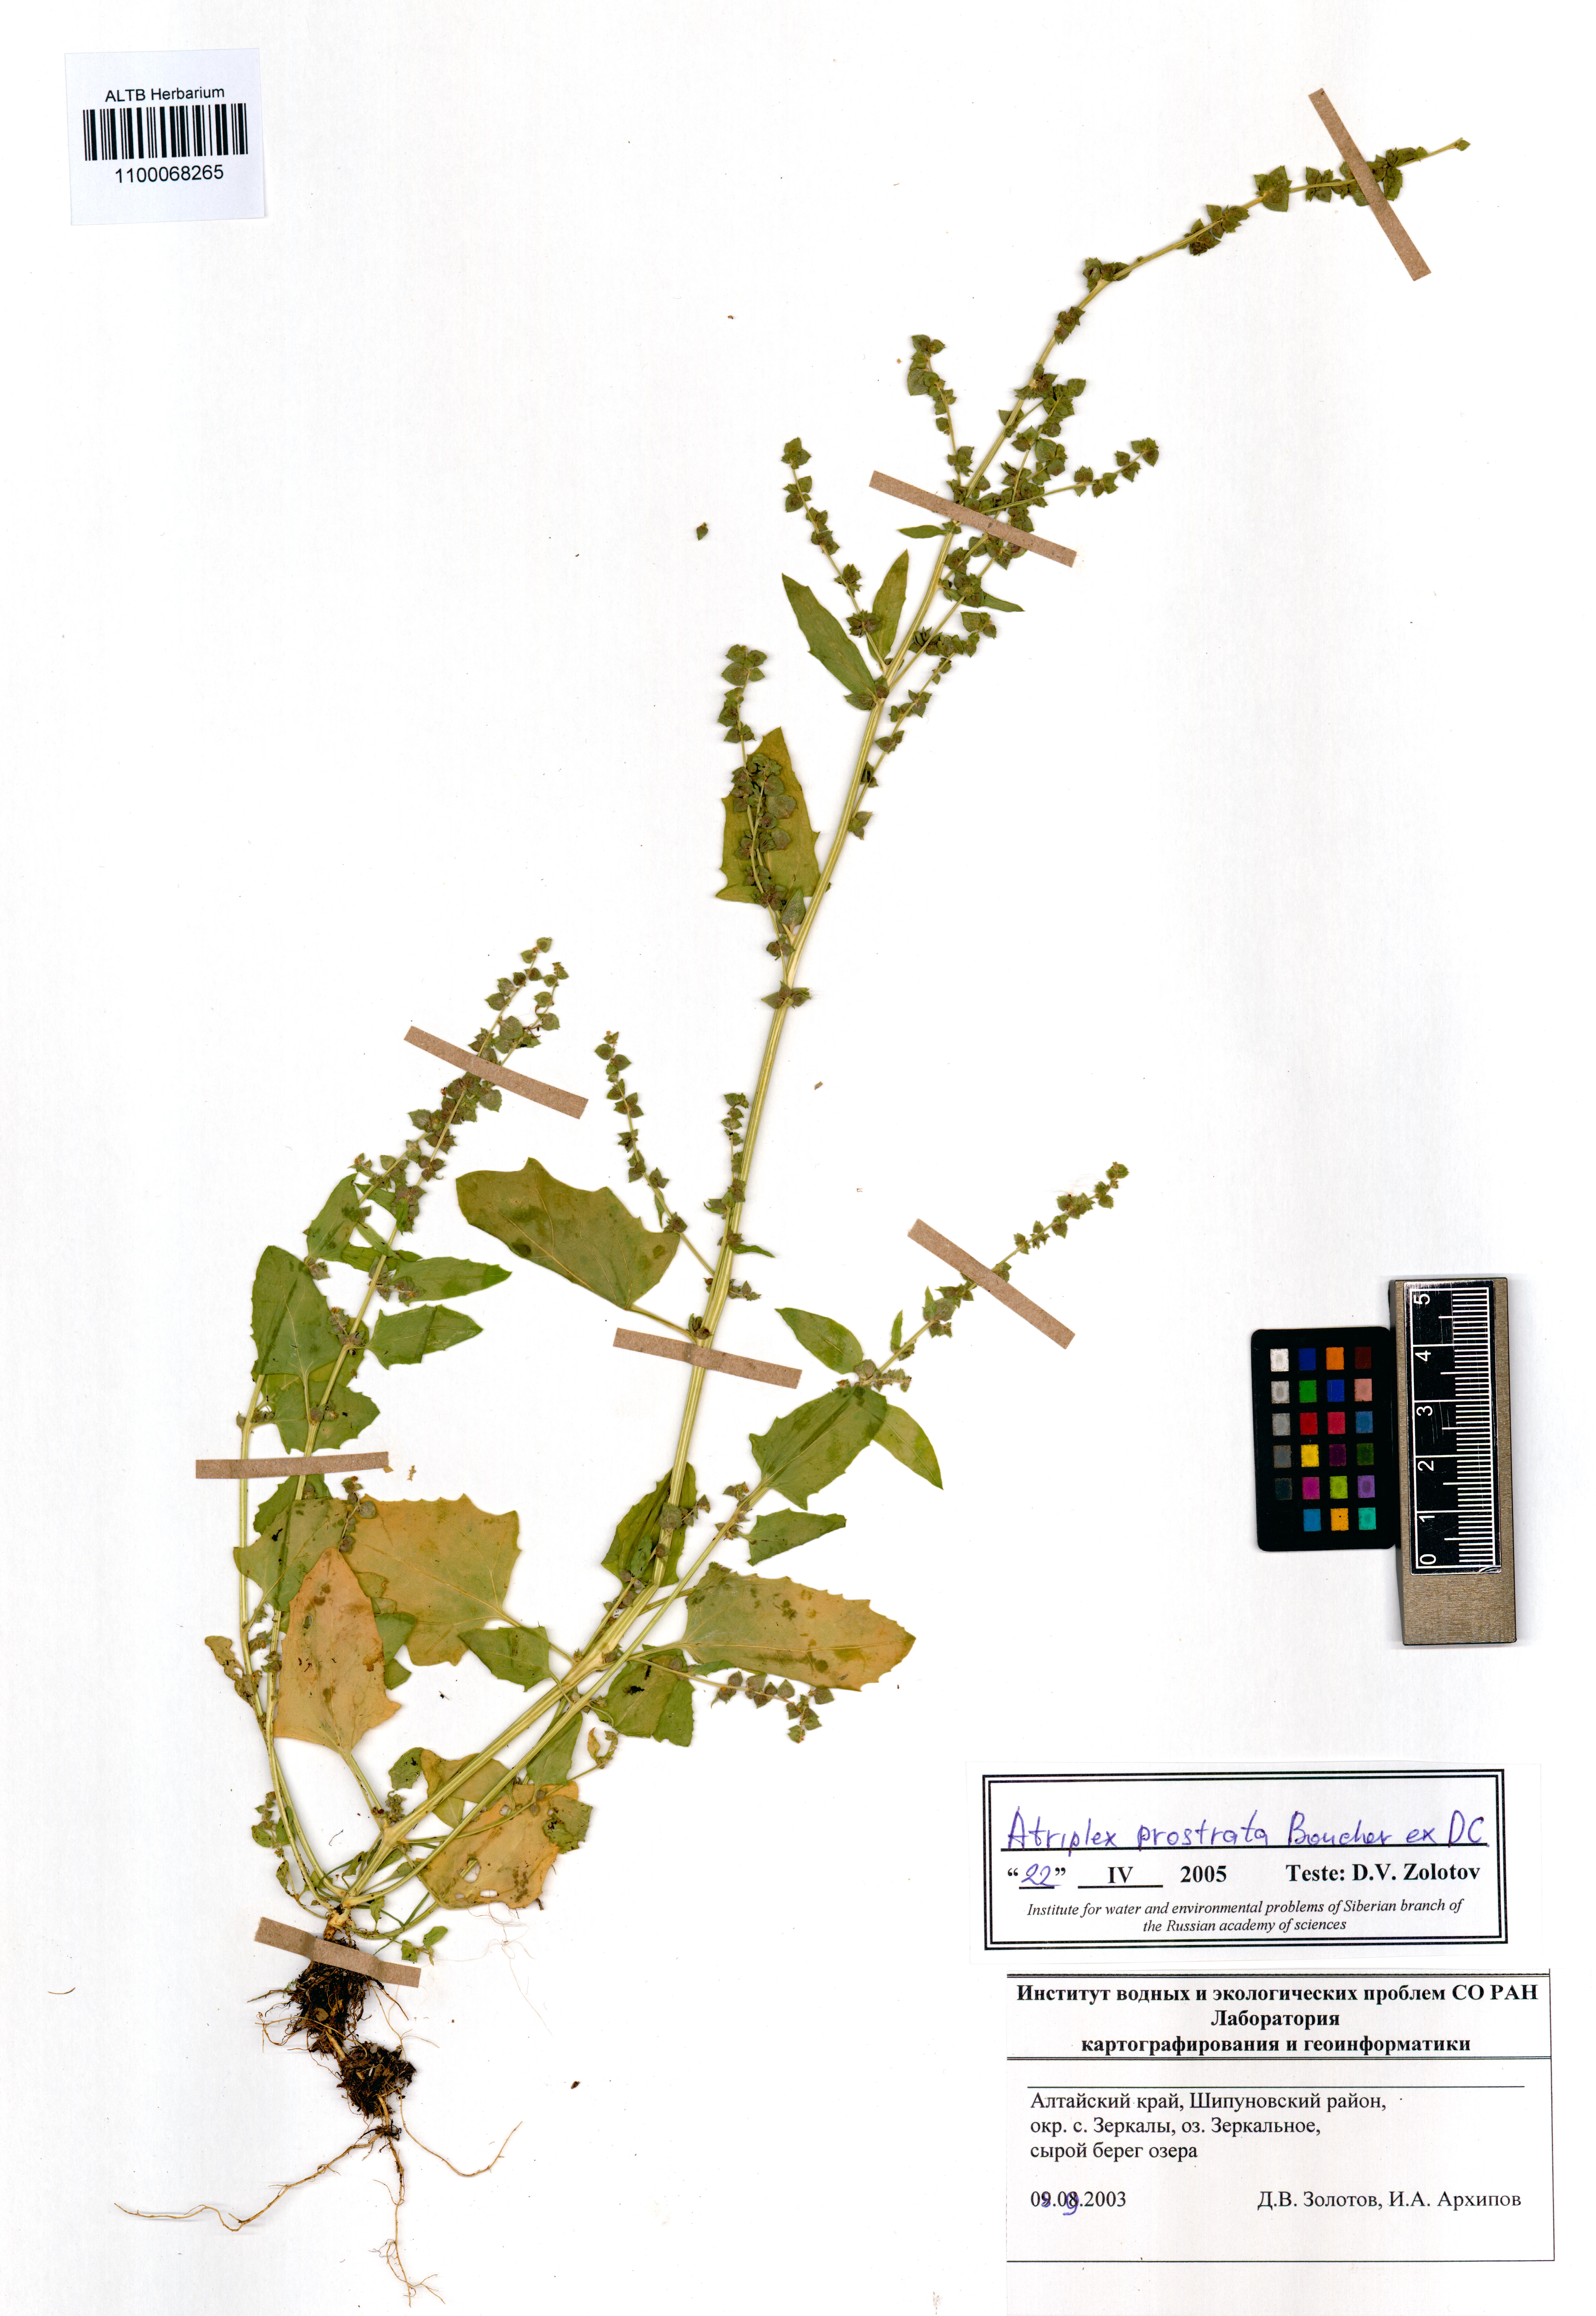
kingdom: Plantae
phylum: Tracheophyta
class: Magnoliopsida
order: Caryophyllales
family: Amaranthaceae
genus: Atriplex
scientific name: Atriplex prostrata
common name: Spear-leaved orache
